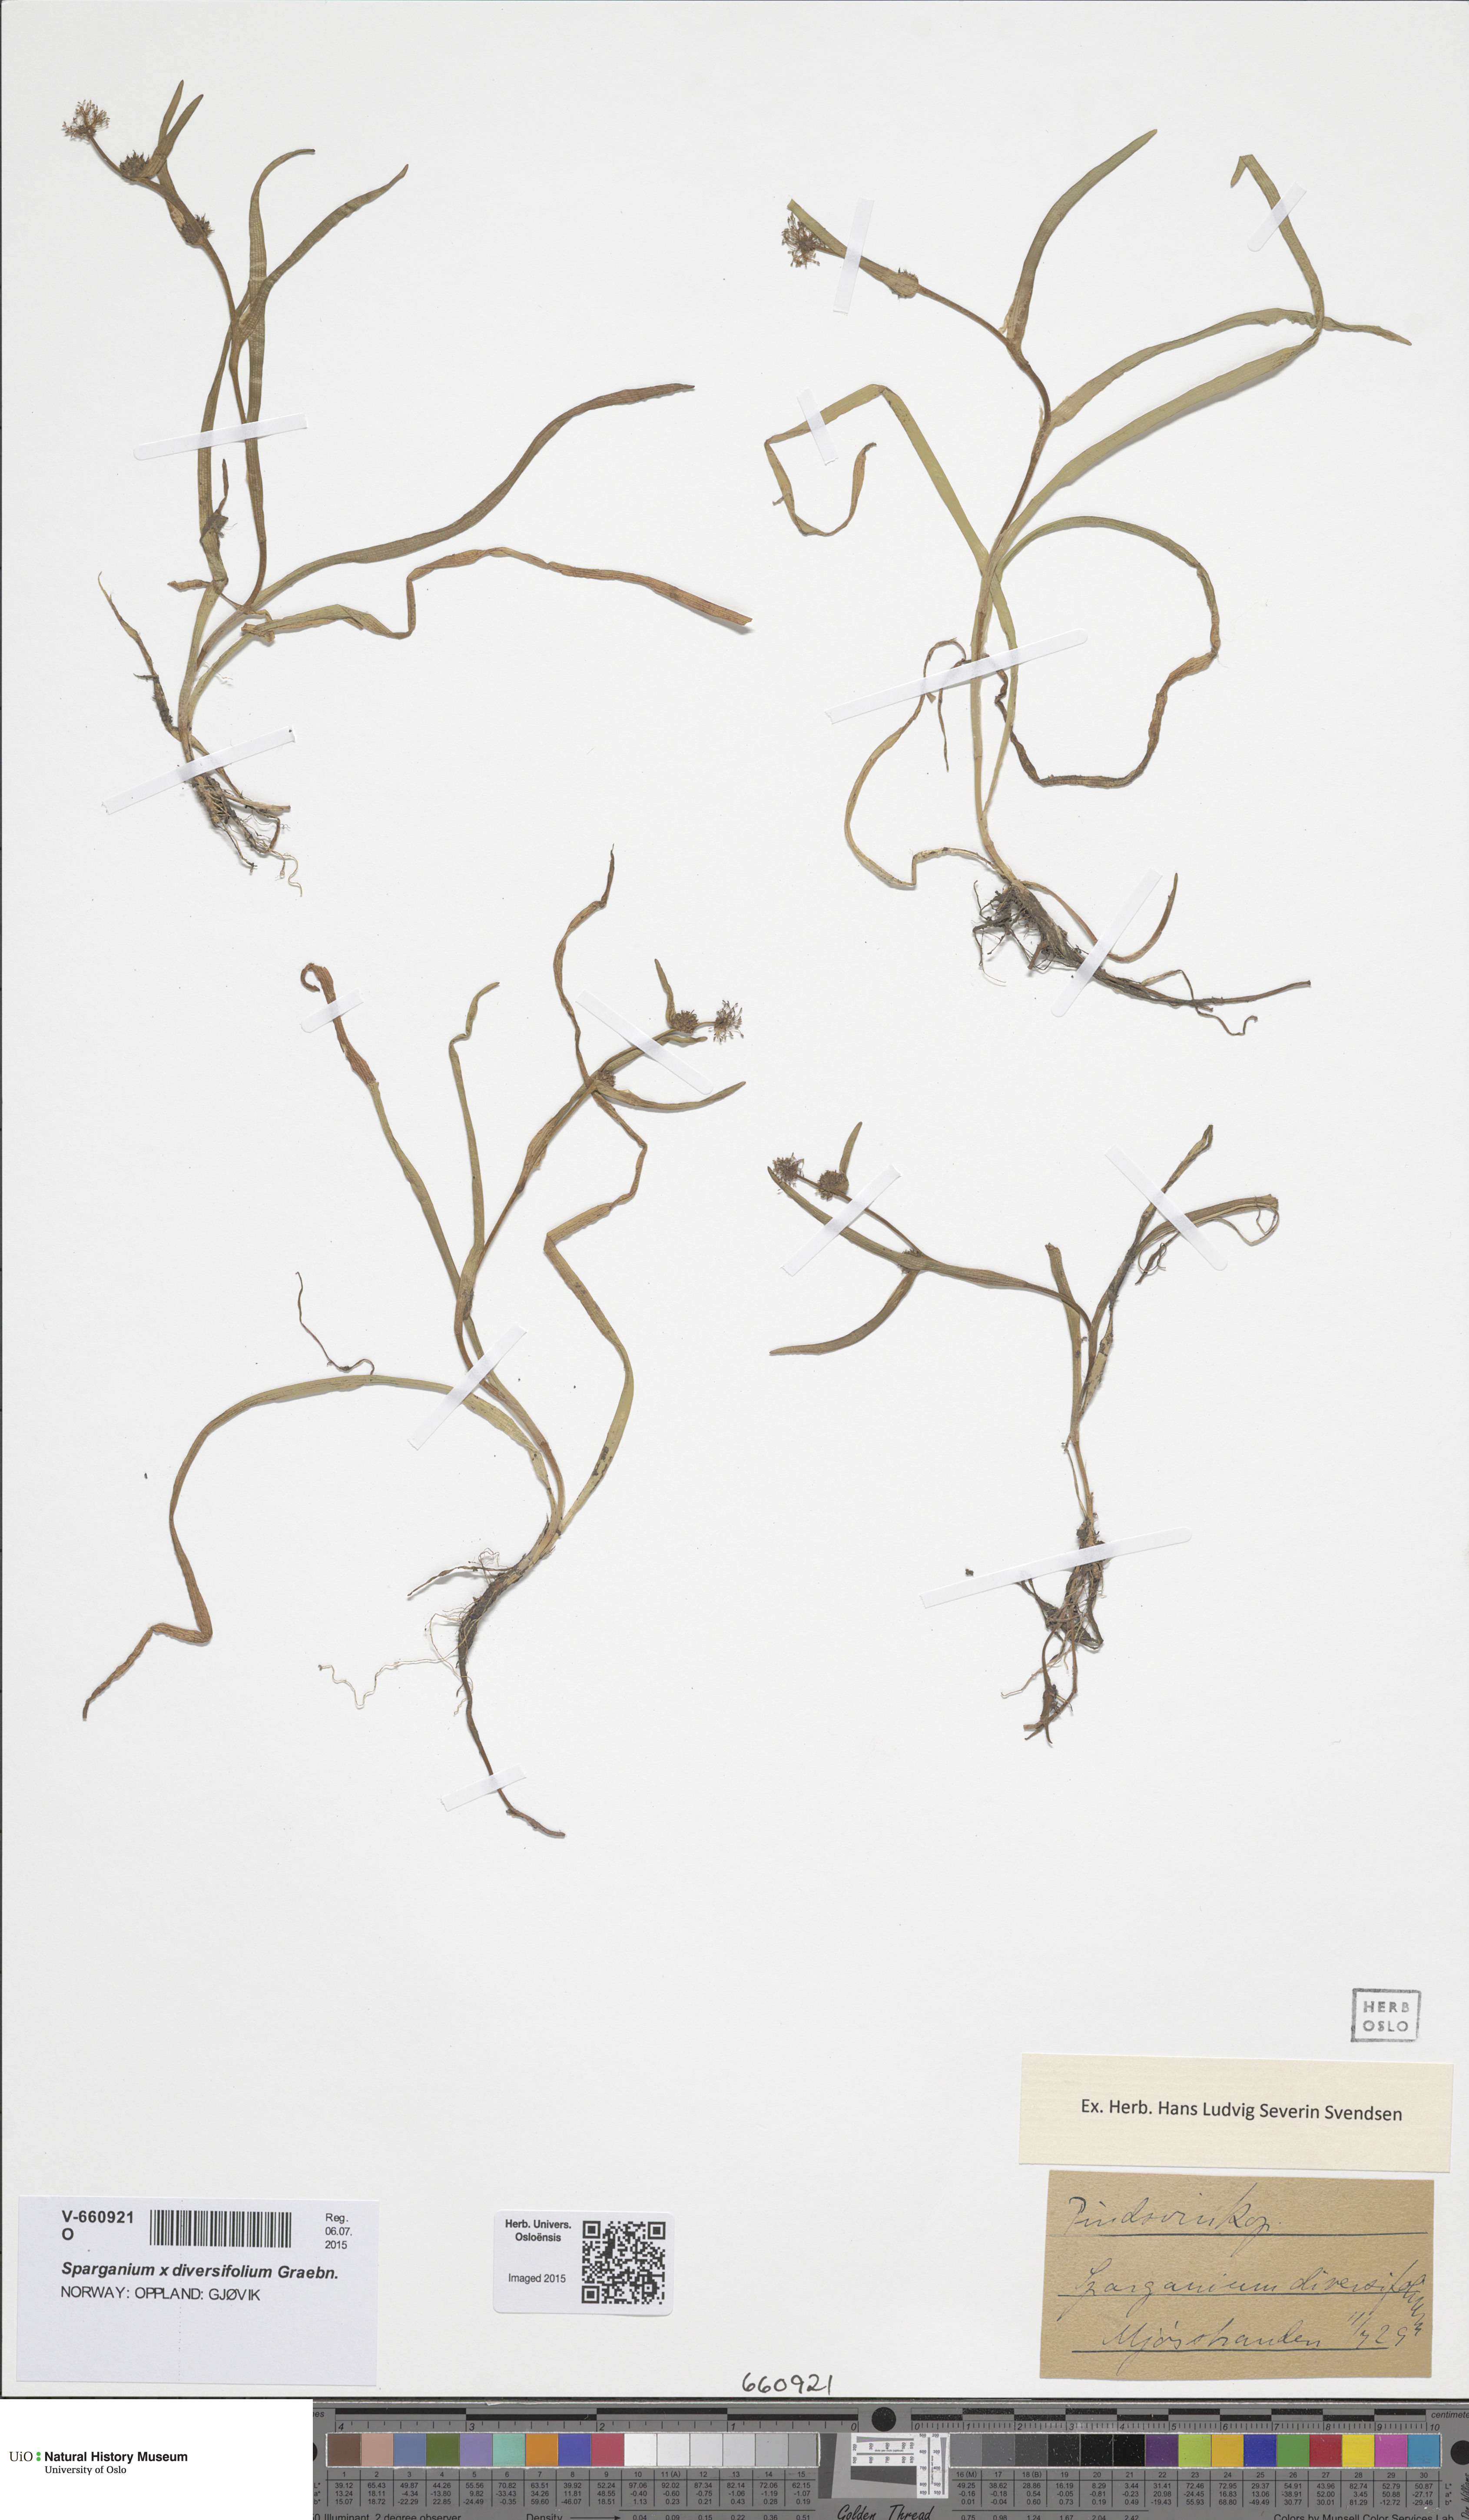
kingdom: Plantae
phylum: Tracheophyta
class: Liliopsida
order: Poales
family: Typhaceae
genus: Sparganium
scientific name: Sparganium natans
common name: Least bur-reed
